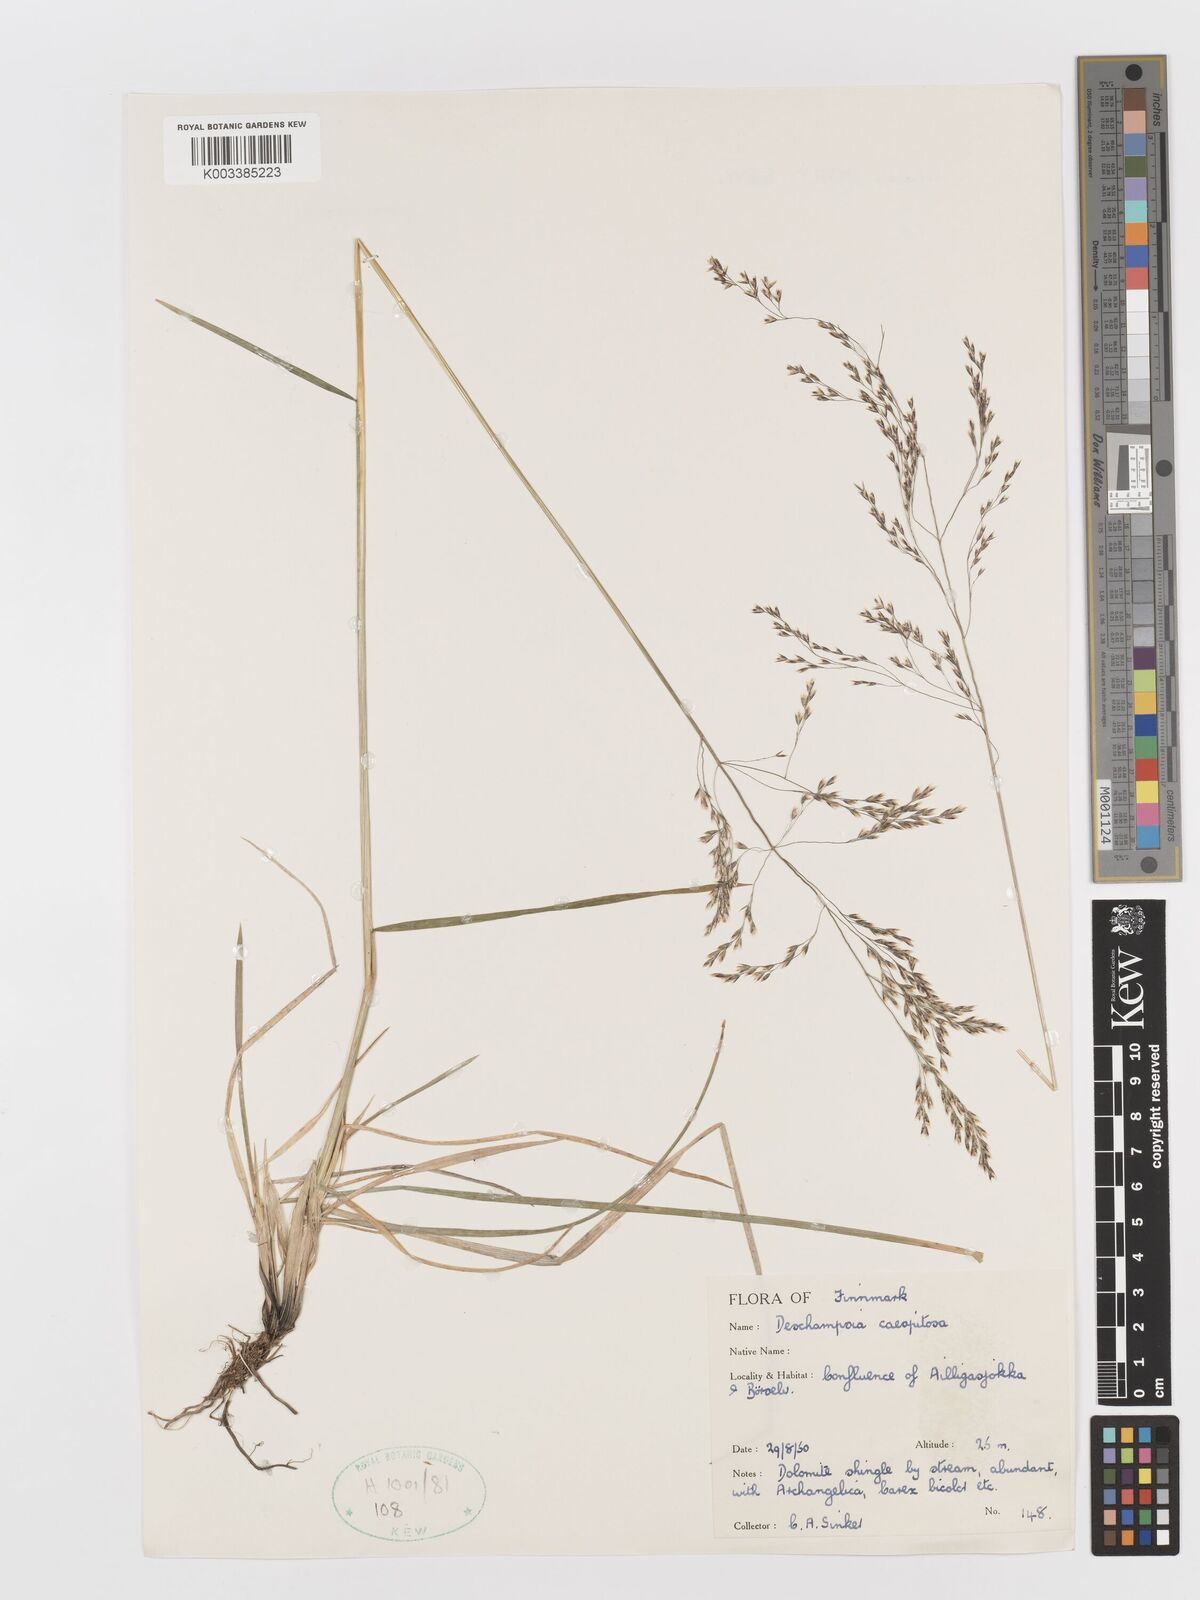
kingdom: Plantae
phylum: Tracheophyta
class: Liliopsida
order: Poales
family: Poaceae
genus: Deschampsia
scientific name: Deschampsia cespitosa
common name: Tufted hair-grass
